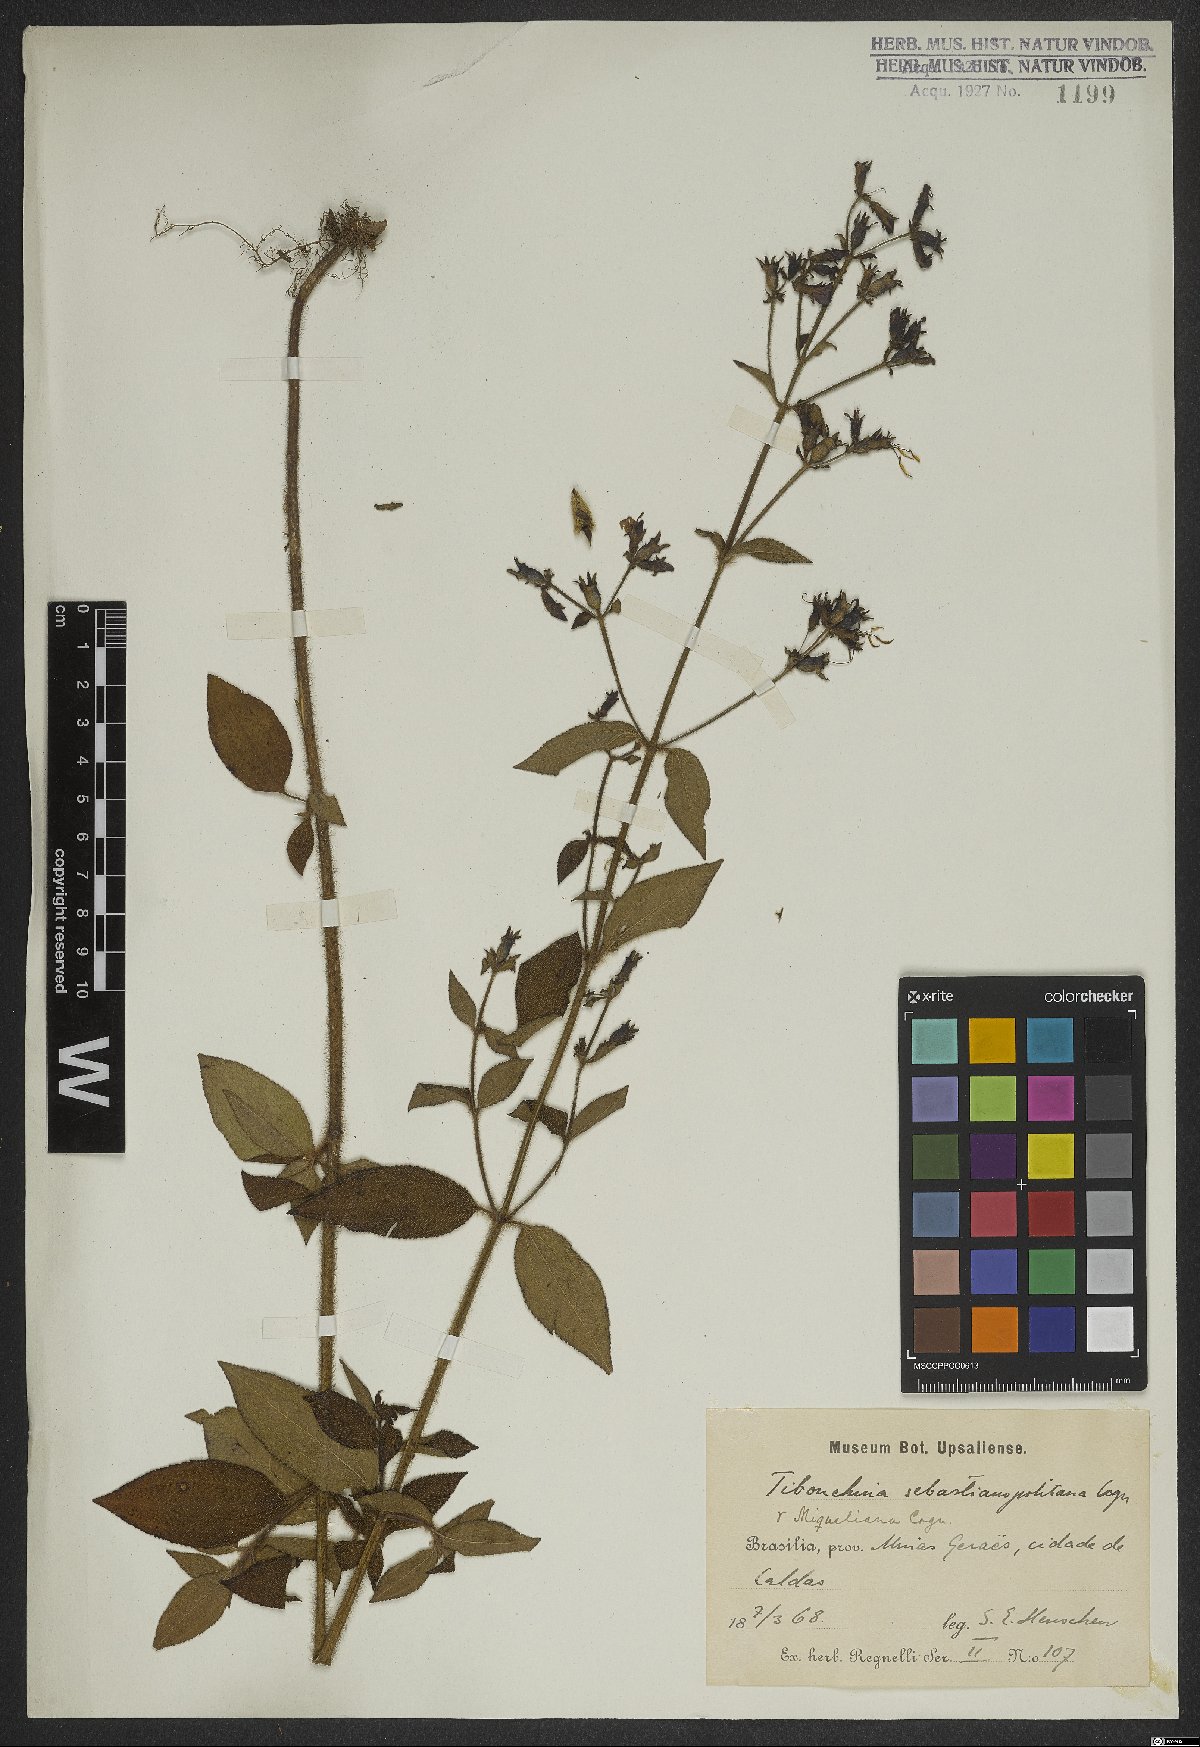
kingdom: Plantae
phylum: Tracheophyta
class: Magnoliopsida
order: Myrtales
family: Melastomataceae
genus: Chaetogastra
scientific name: Chaetogastra sebastianopolitana
